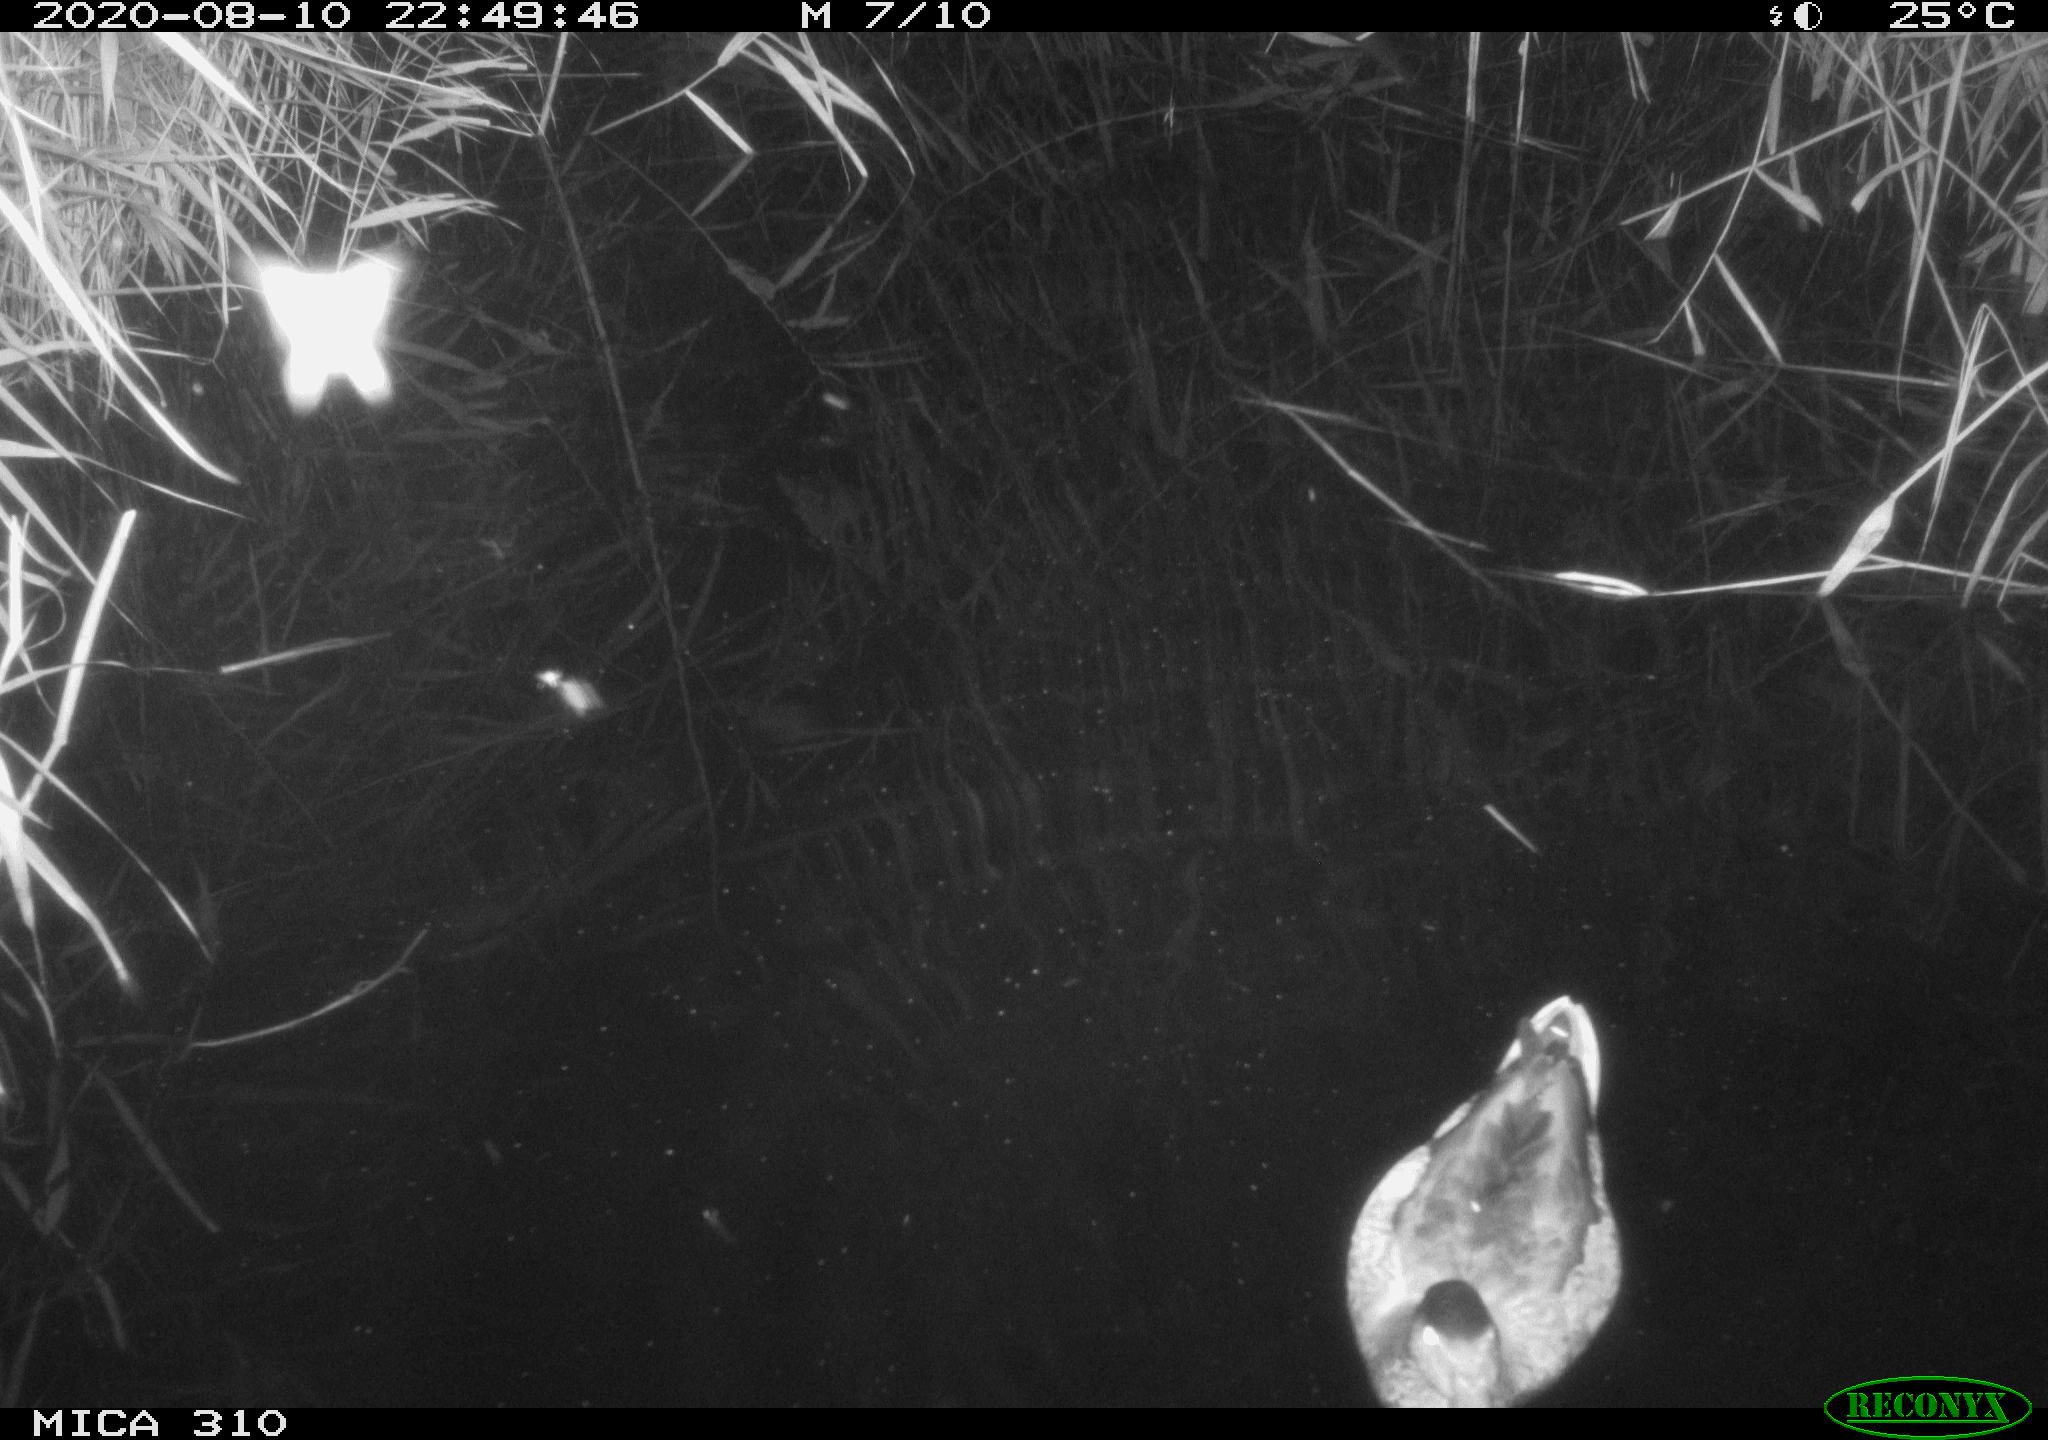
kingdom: Animalia
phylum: Chordata
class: Aves
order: Anseriformes
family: Anatidae
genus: Anas
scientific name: Anas platyrhynchos
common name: Mallard
